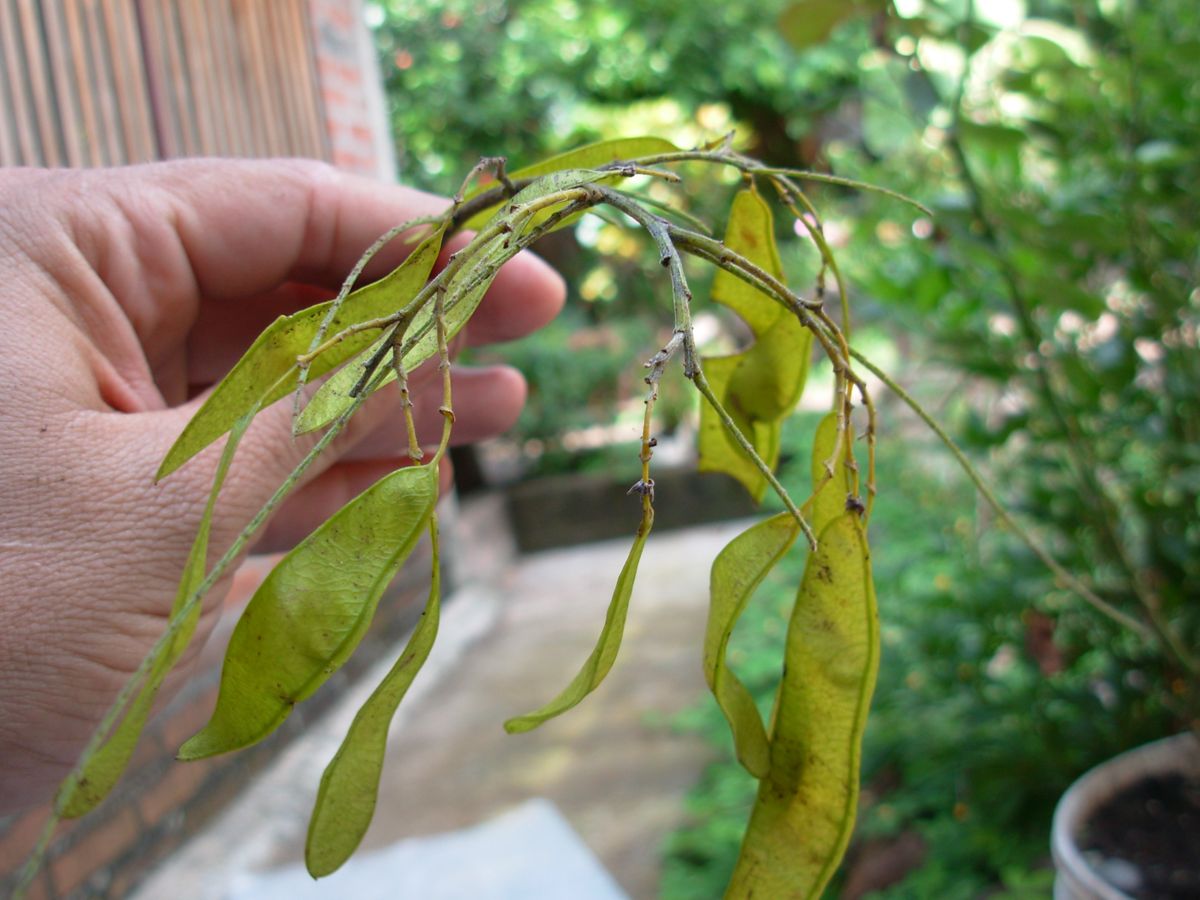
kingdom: Plantae
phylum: Tracheophyta
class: Magnoliopsida
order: Fabales
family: Fabaceae
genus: Poeppigia
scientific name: Poeppigia procera
